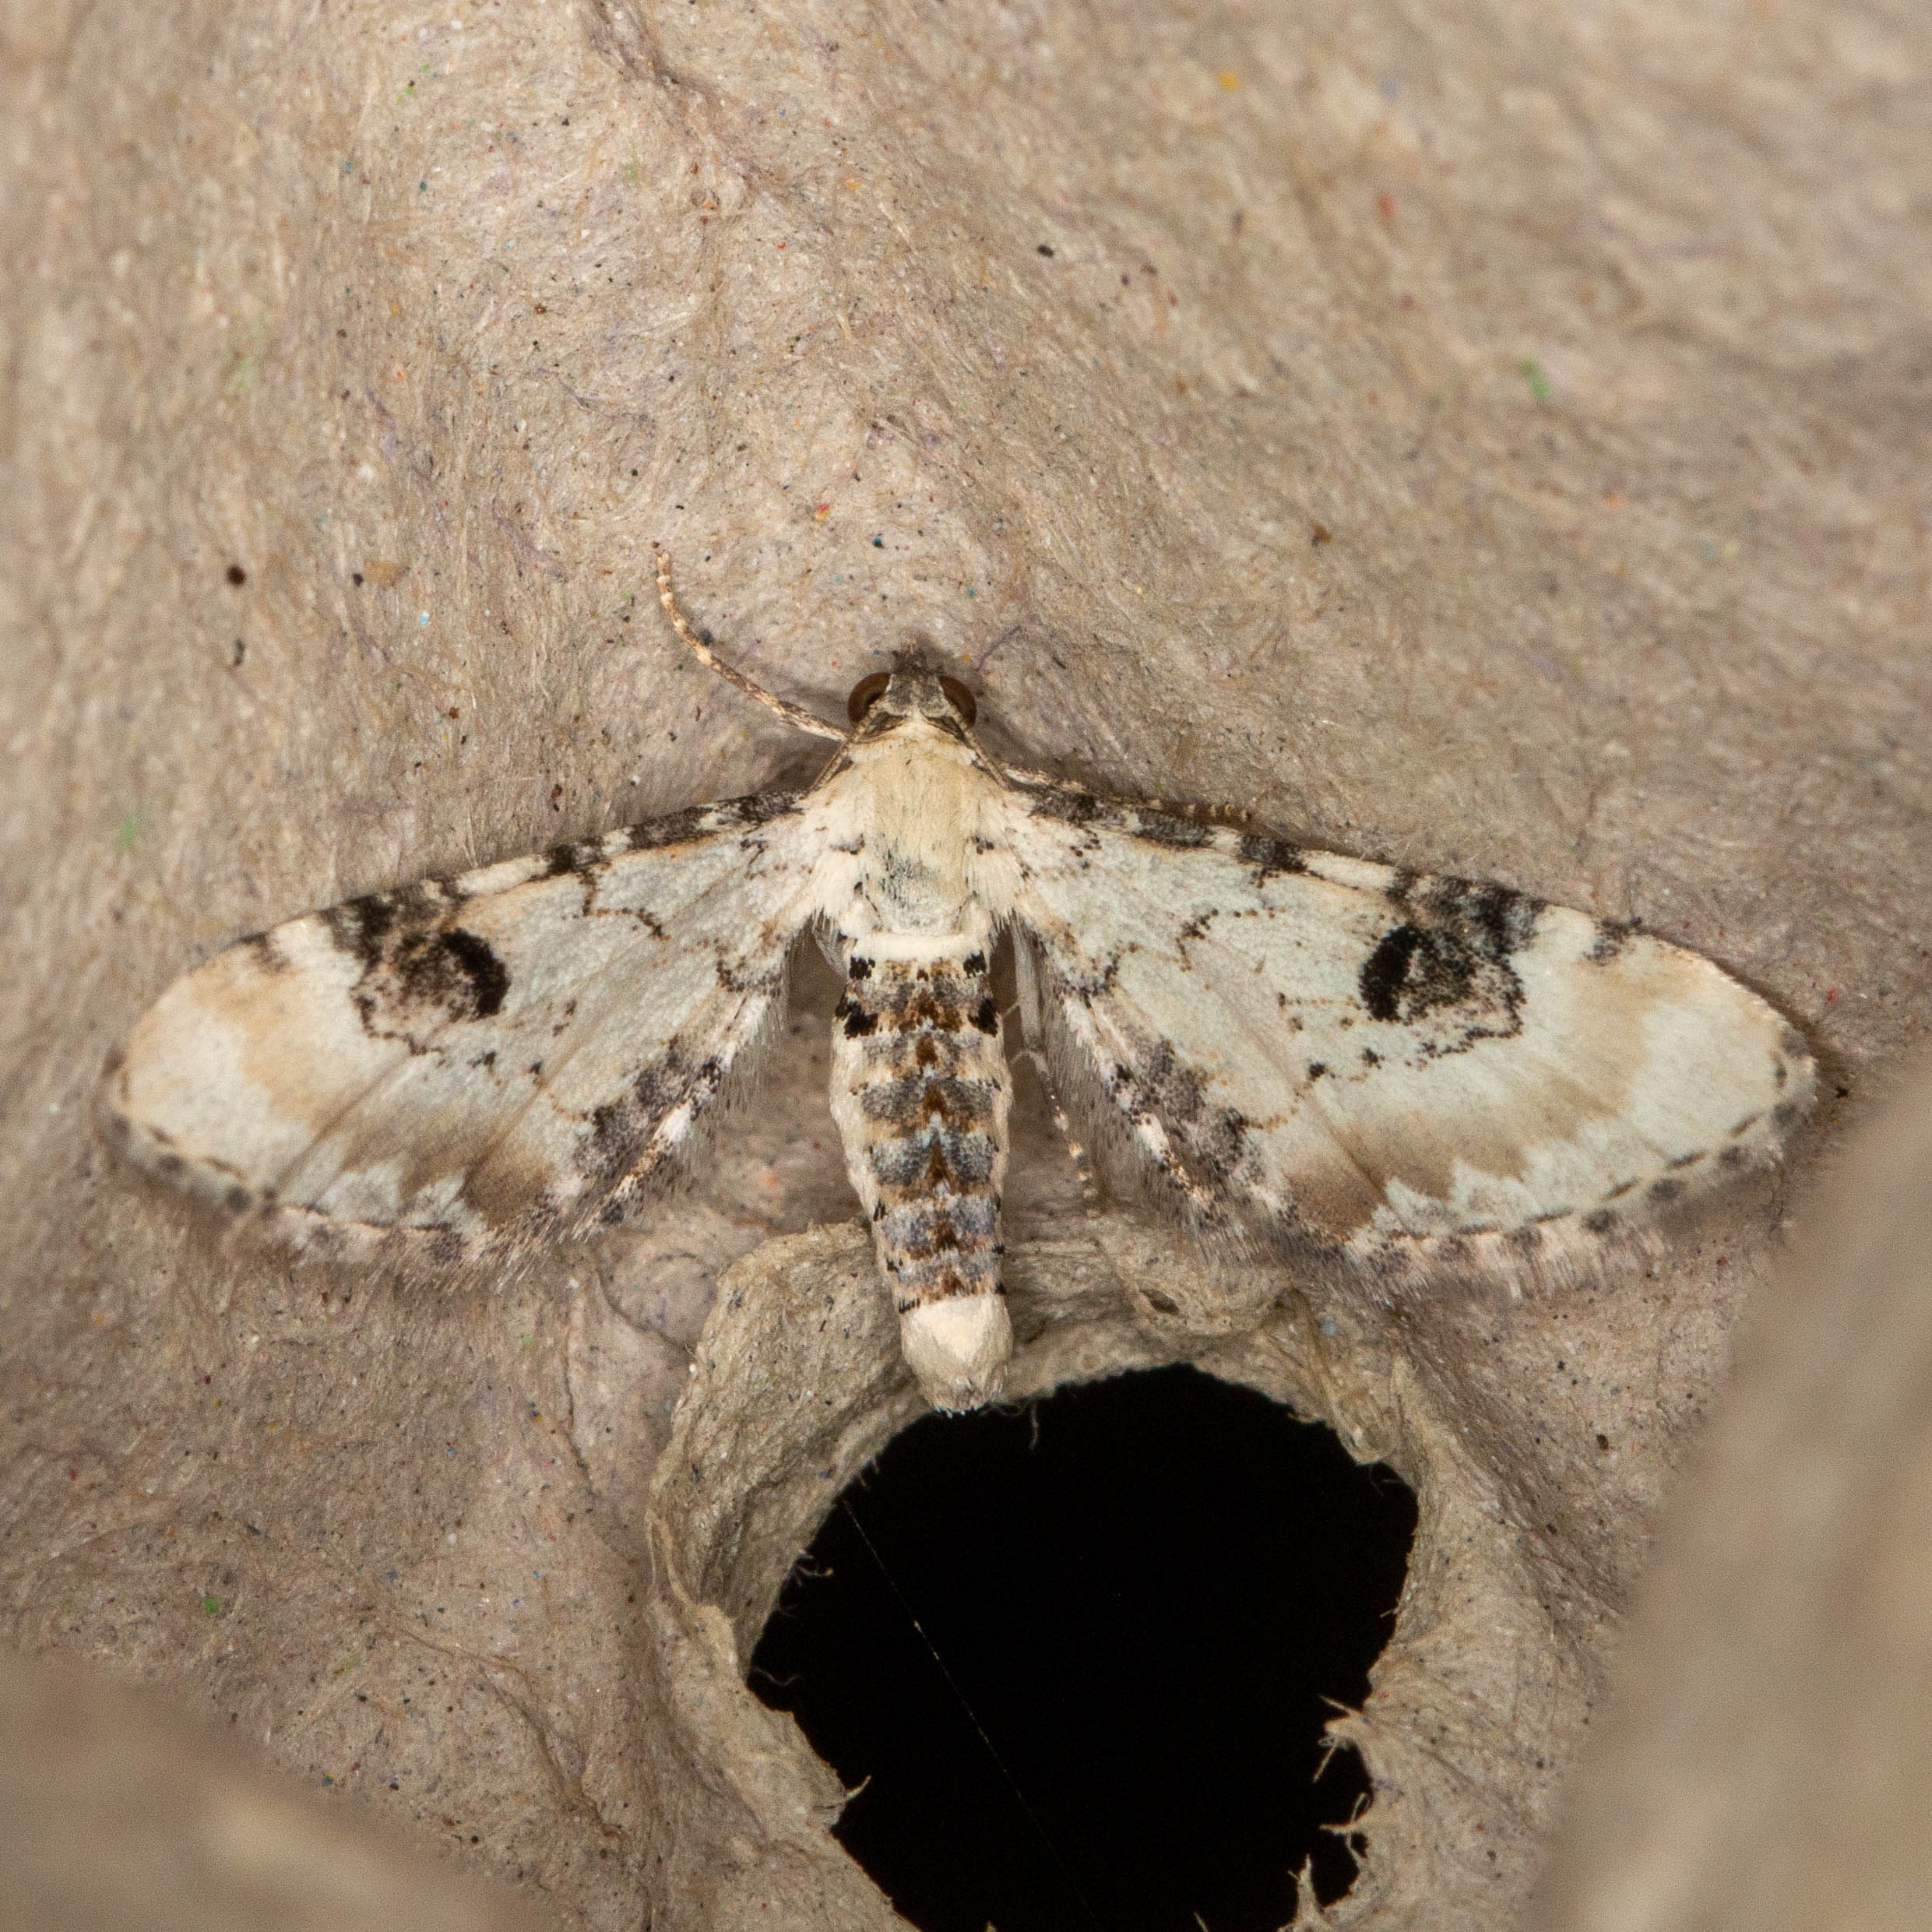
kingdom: Animalia
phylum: Arthropoda
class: Insecta
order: Lepidoptera
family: Geometridae
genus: Eupithecia
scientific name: Eupithecia centaureata
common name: Hvid dværgmåler
